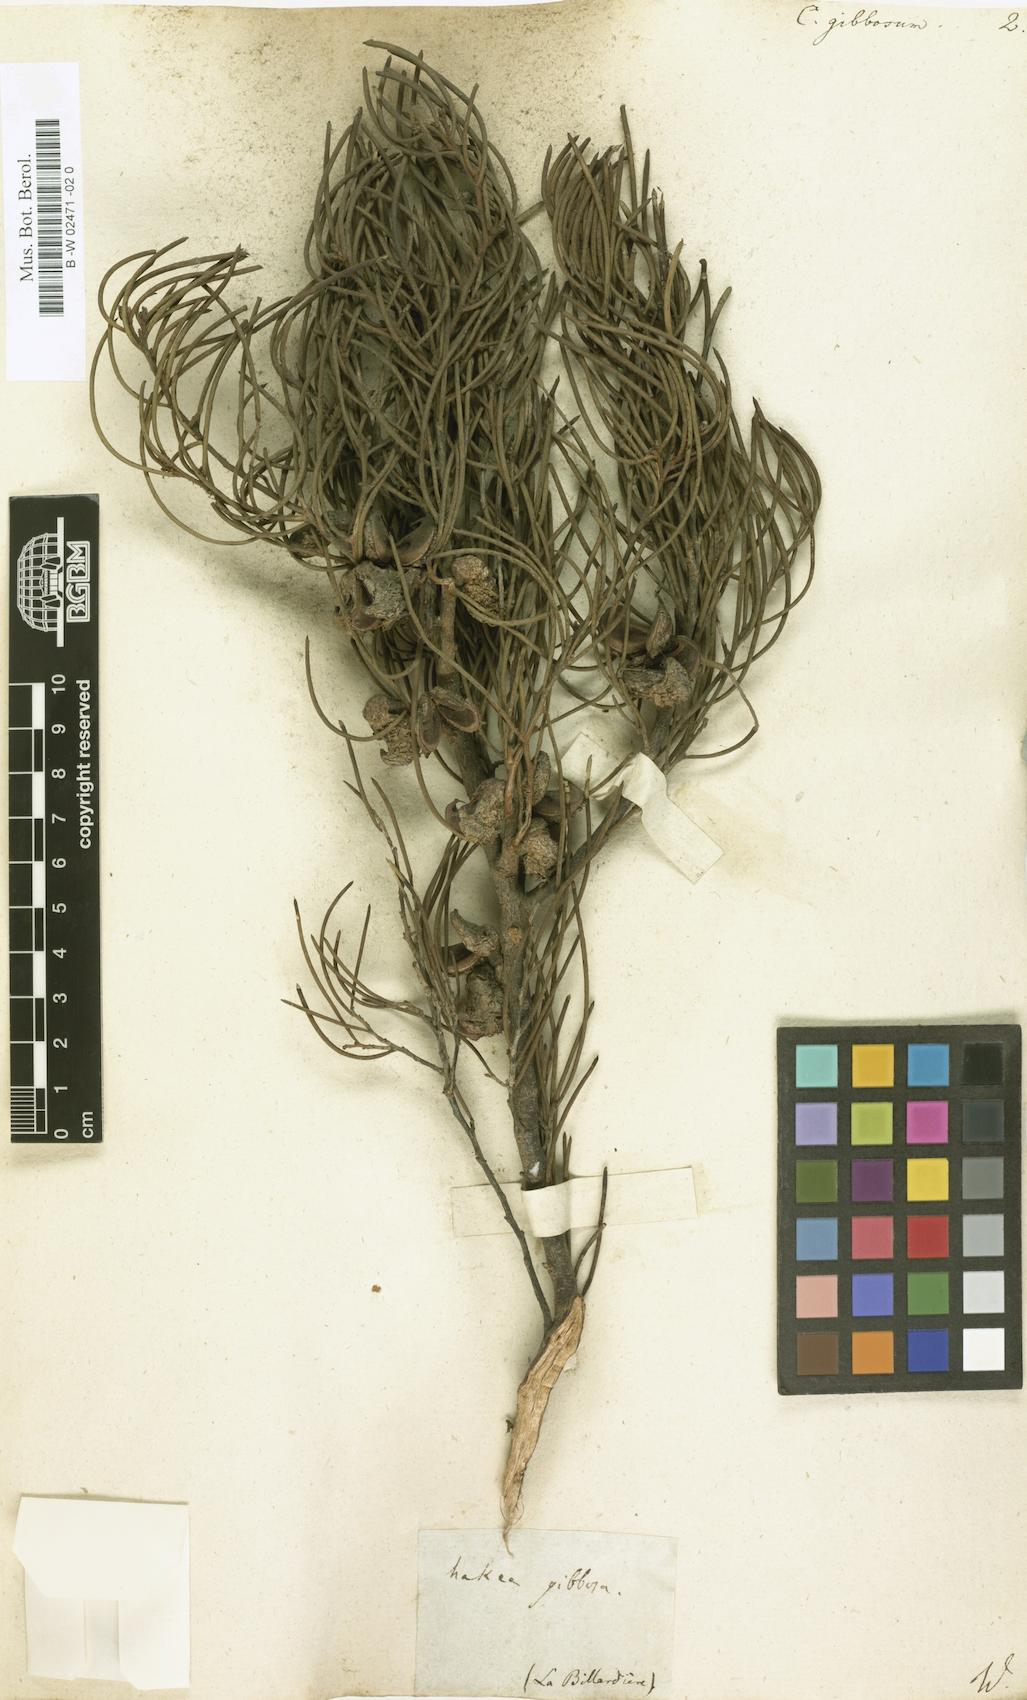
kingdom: Plantae
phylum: Tracheophyta
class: Magnoliopsida
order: Proteales
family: Proteaceae
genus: Hakea
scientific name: Hakea gibbosa
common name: Rock hakea
